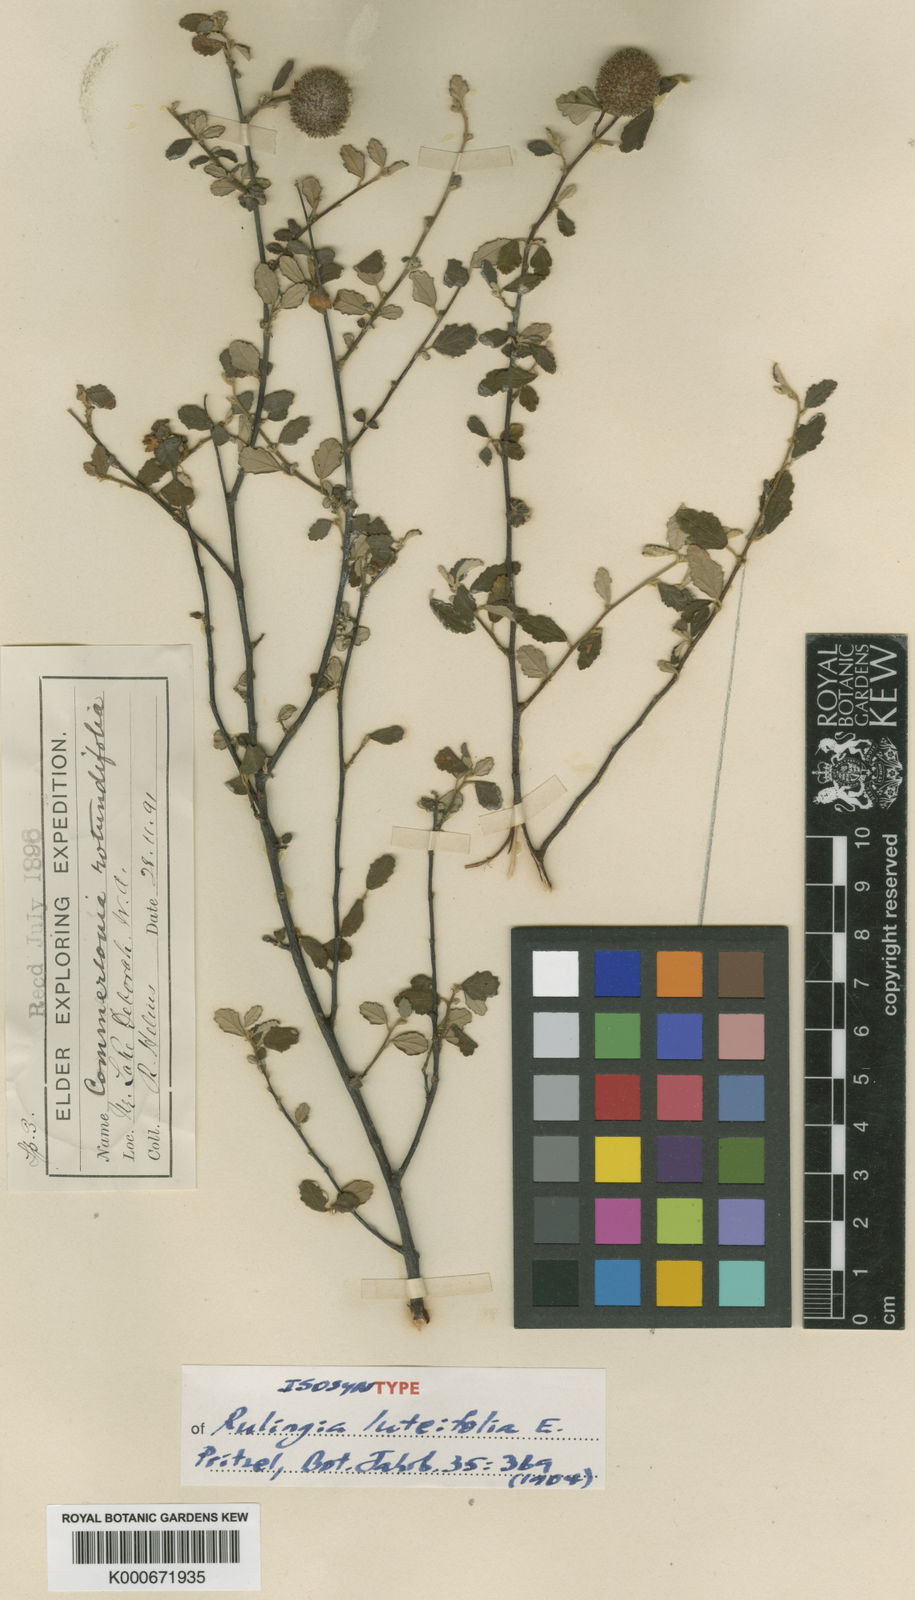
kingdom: Plantae
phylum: Tracheophyta
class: Magnoliopsida
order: Malvales
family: Malvaceae
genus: Androcalva
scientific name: Androcalva luteiflora
